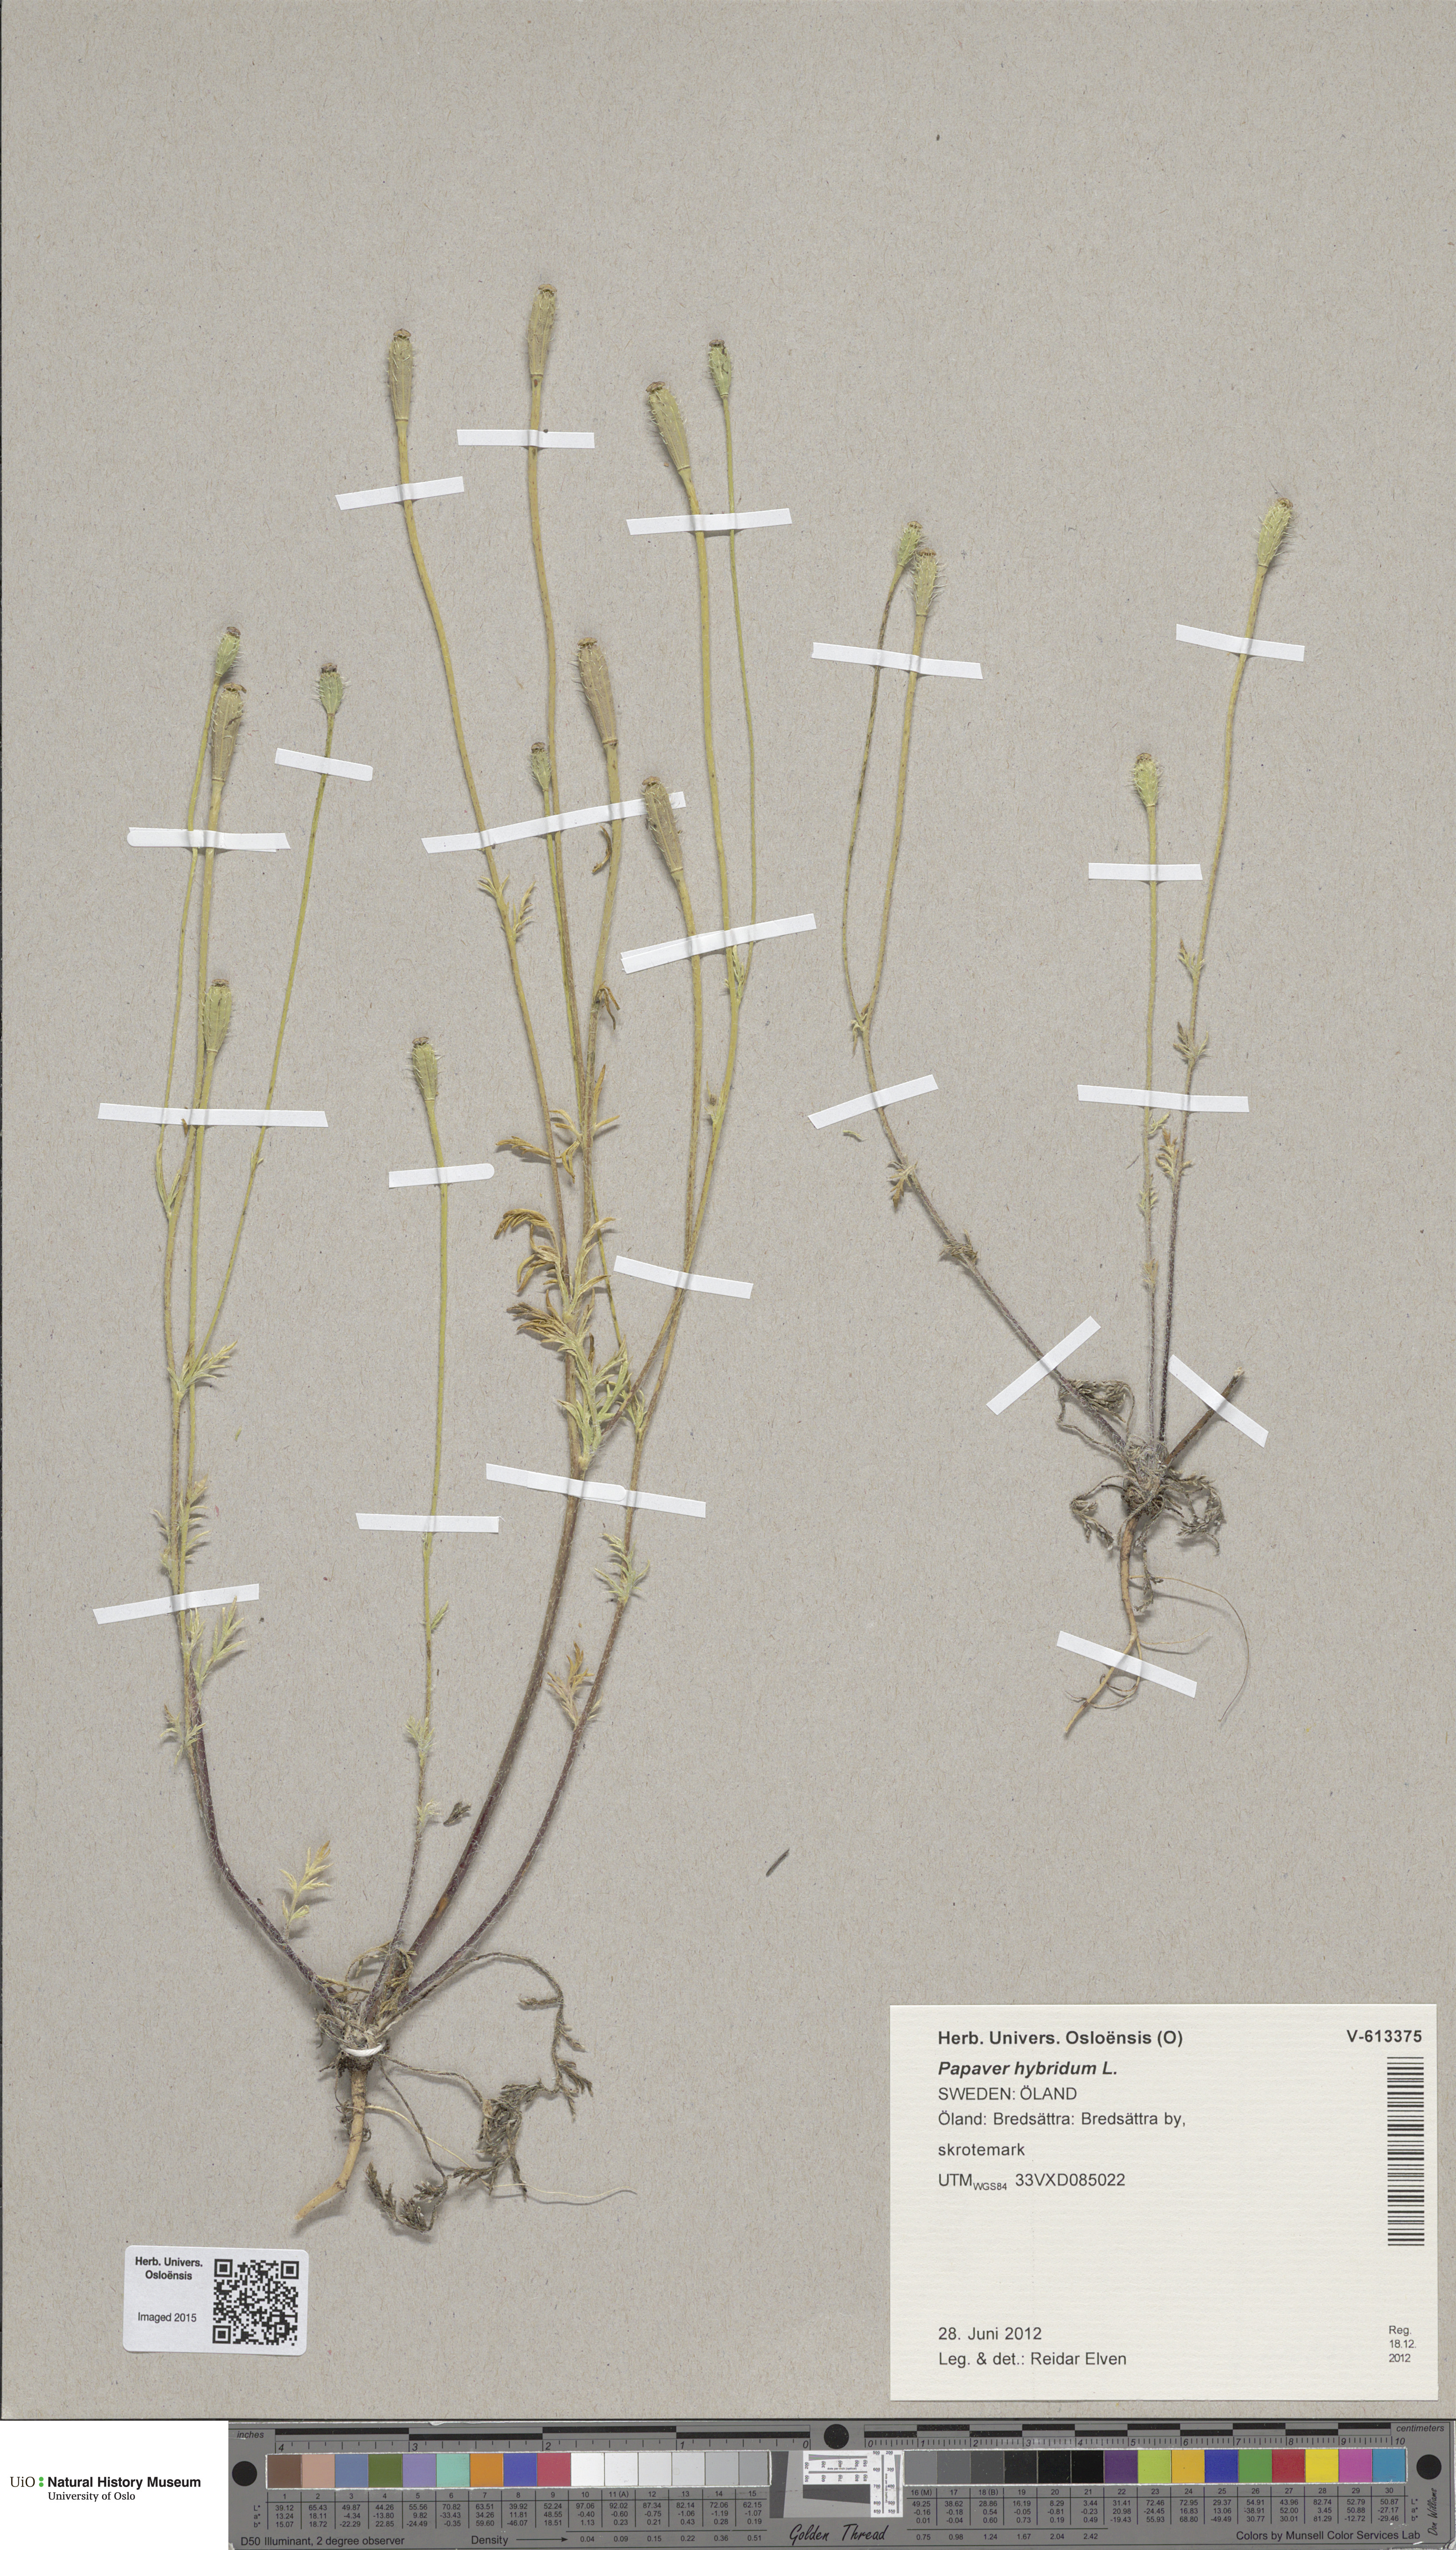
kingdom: Plantae
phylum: Tracheophyta
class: Magnoliopsida
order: Ranunculales
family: Papaveraceae
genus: Roemeria
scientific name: Roemeria hispida
